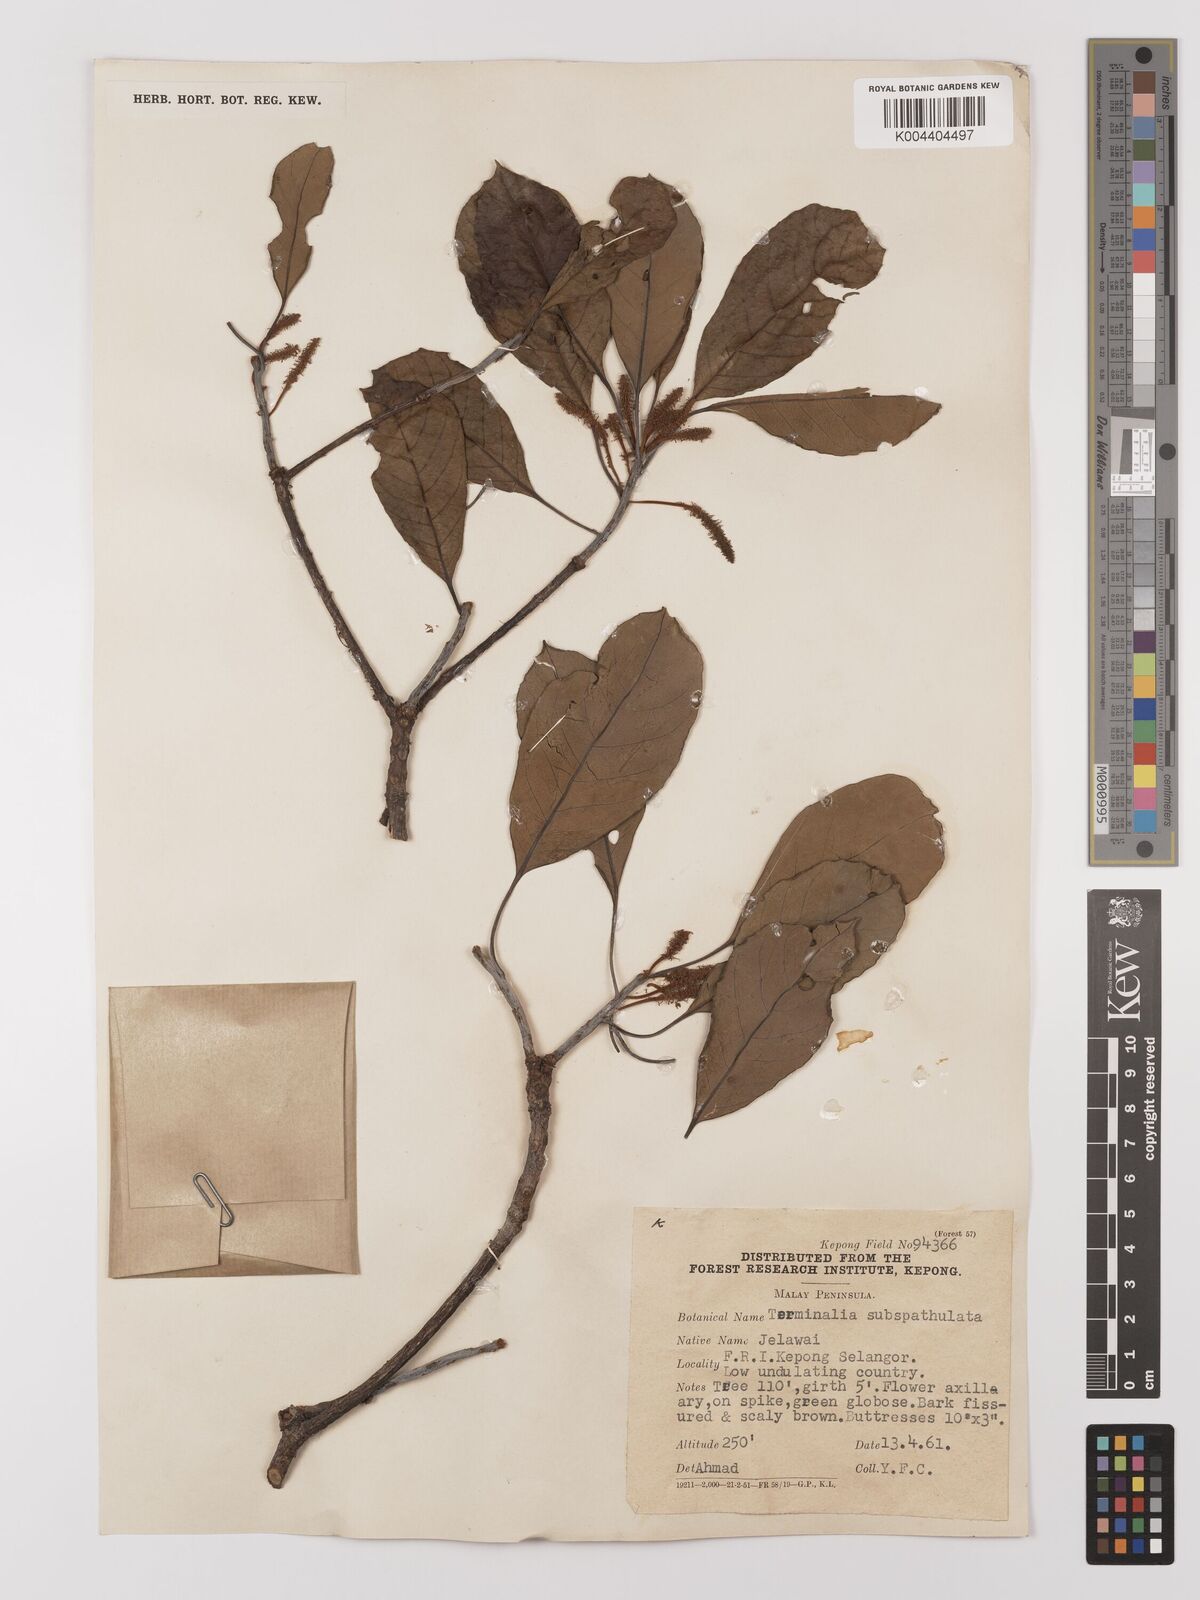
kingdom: Plantae
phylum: Tracheophyta
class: Magnoliopsida
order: Myrtales
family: Combretaceae
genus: Terminalia
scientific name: Terminalia subspathulata
